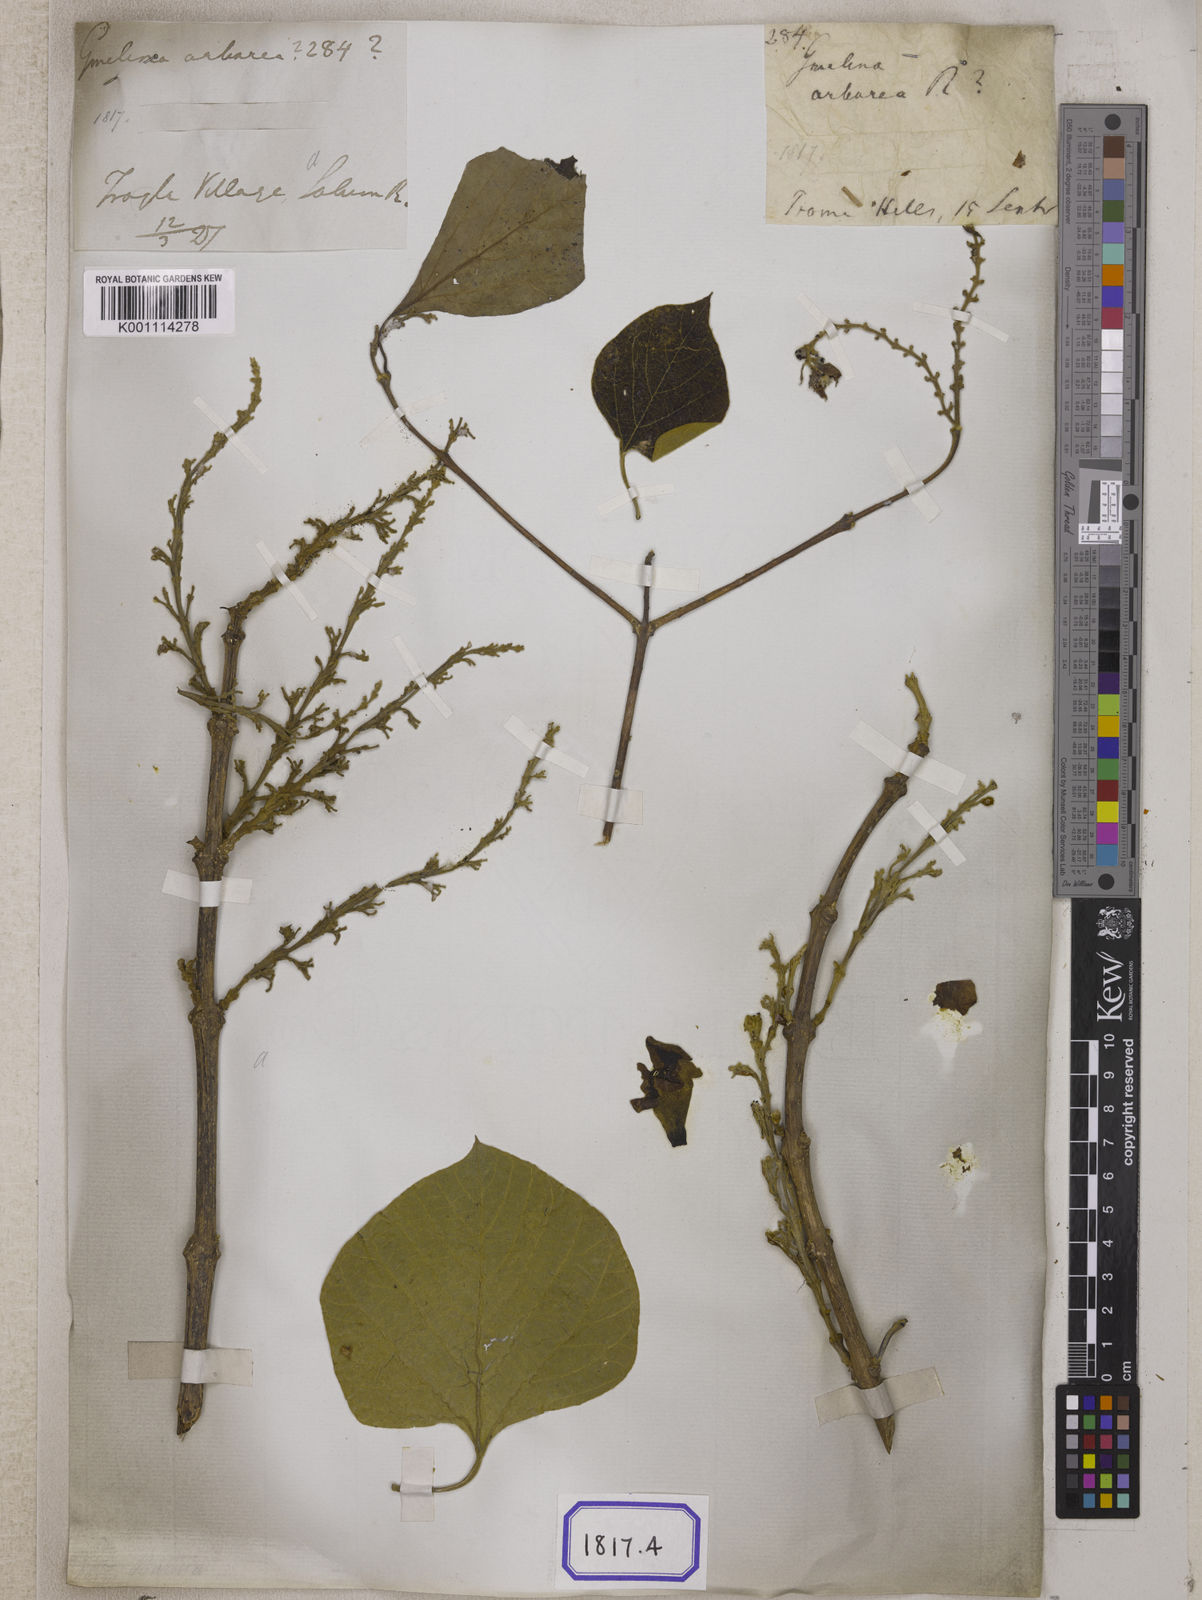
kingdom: Plantae
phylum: Tracheophyta
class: Magnoliopsida
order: Lamiales
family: Lamiaceae
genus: Gmelina
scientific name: Gmelina
